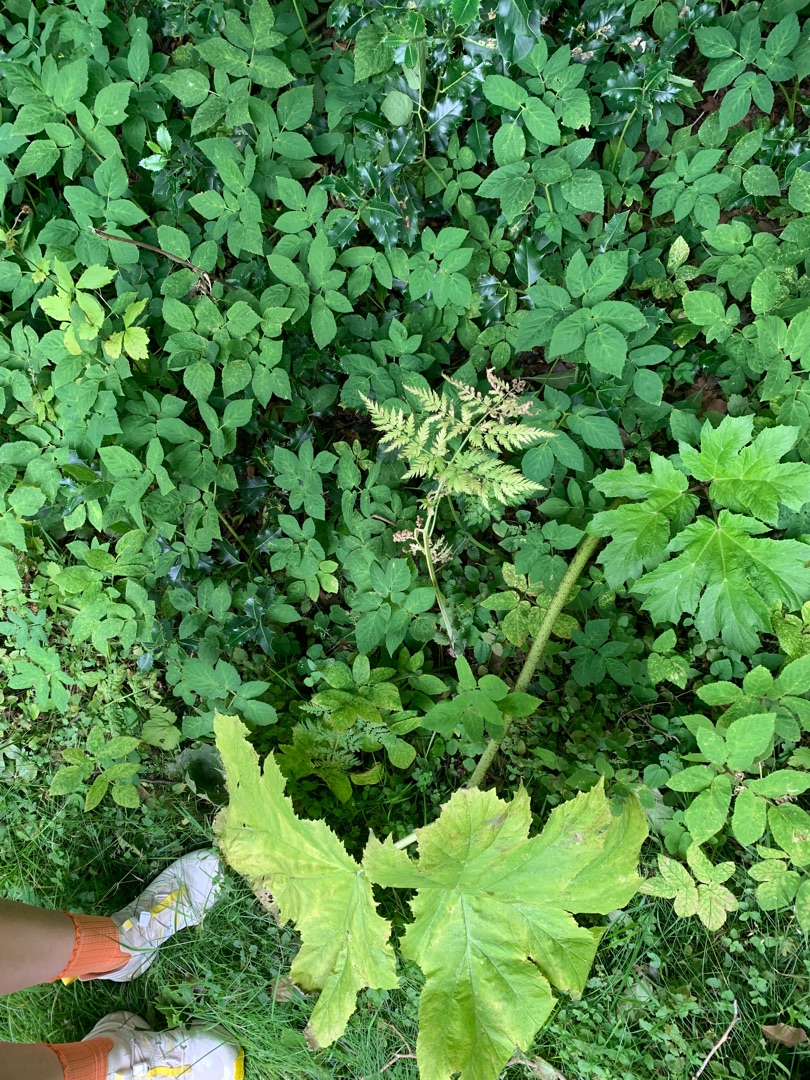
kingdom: Plantae
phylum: Tracheophyta
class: Magnoliopsida
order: Apiales
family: Apiaceae
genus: Heracleum
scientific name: Heracleum mantegazzianum
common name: Kæmpe-bjørneklo
